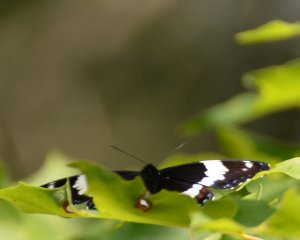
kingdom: Animalia
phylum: Arthropoda
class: Insecta
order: Lepidoptera
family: Nymphalidae
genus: Limenitis
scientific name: Limenitis arthemis
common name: Red-spotted Admiral
